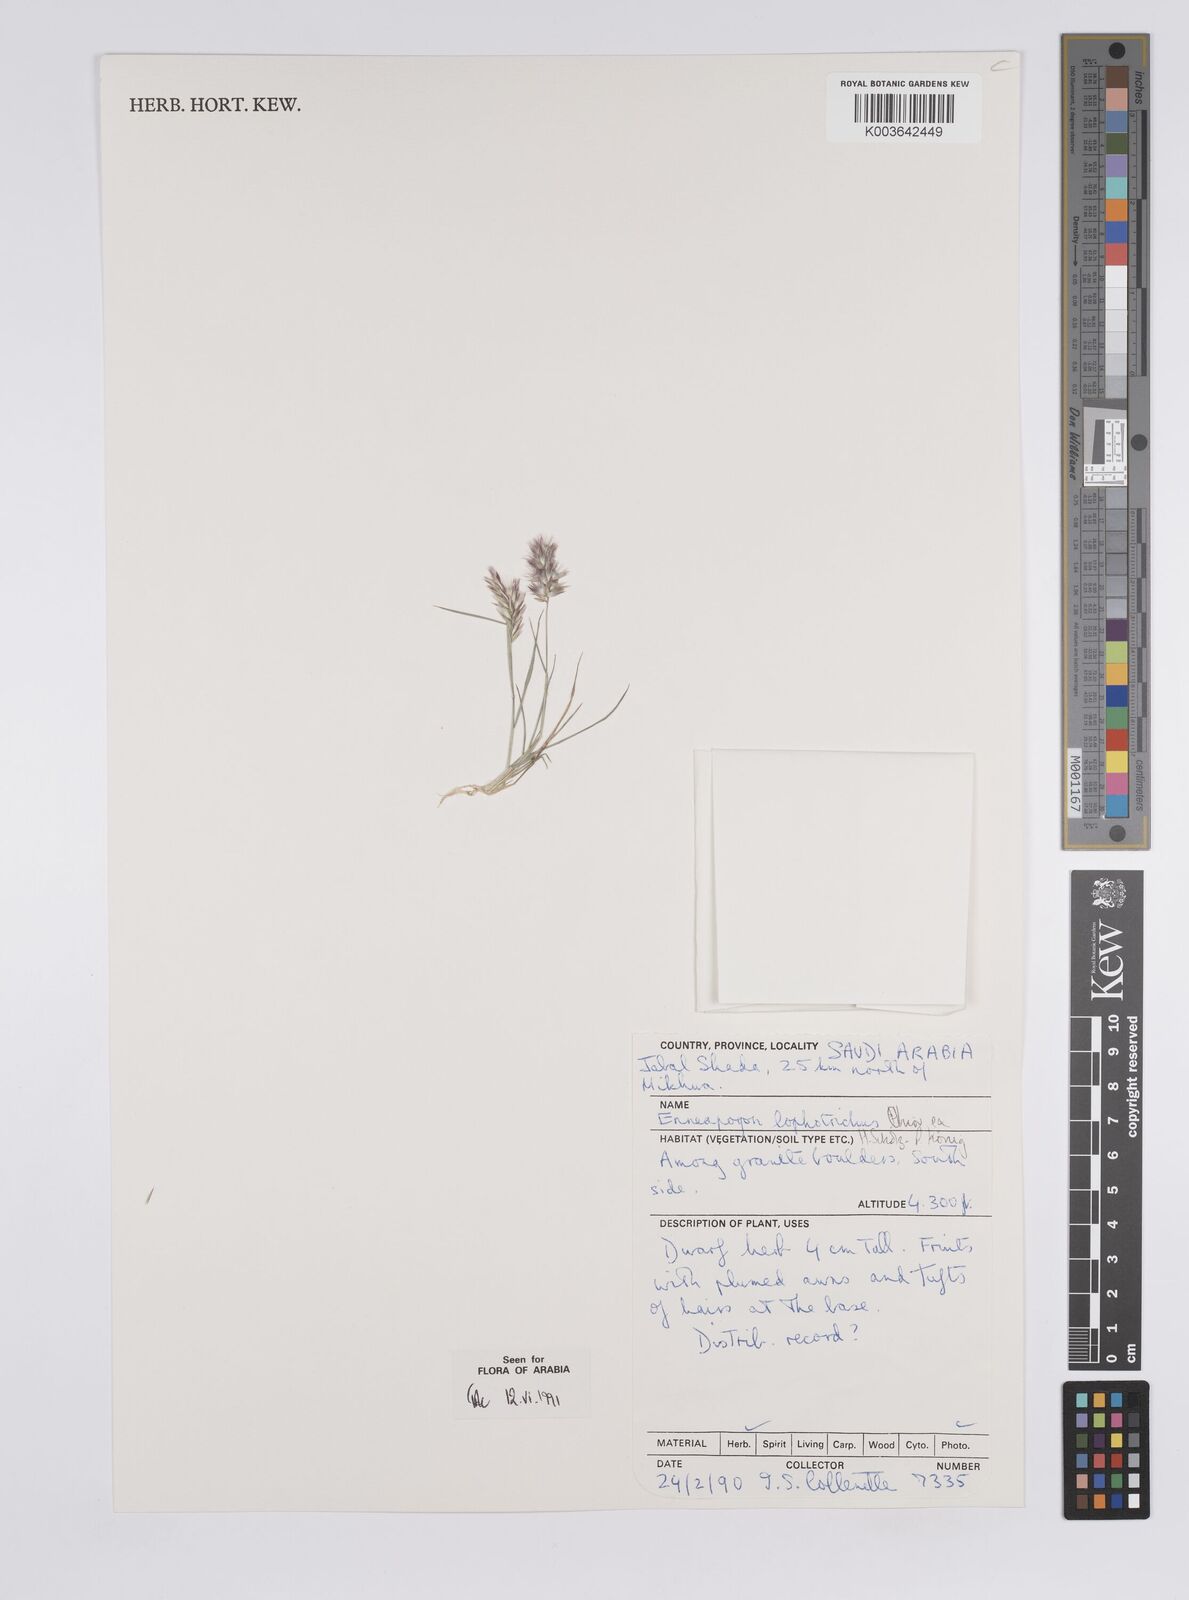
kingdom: Plantae
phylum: Tracheophyta
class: Liliopsida
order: Poales
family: Poaceae
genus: Enneapogon
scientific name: Enneapogon lophotrichus
